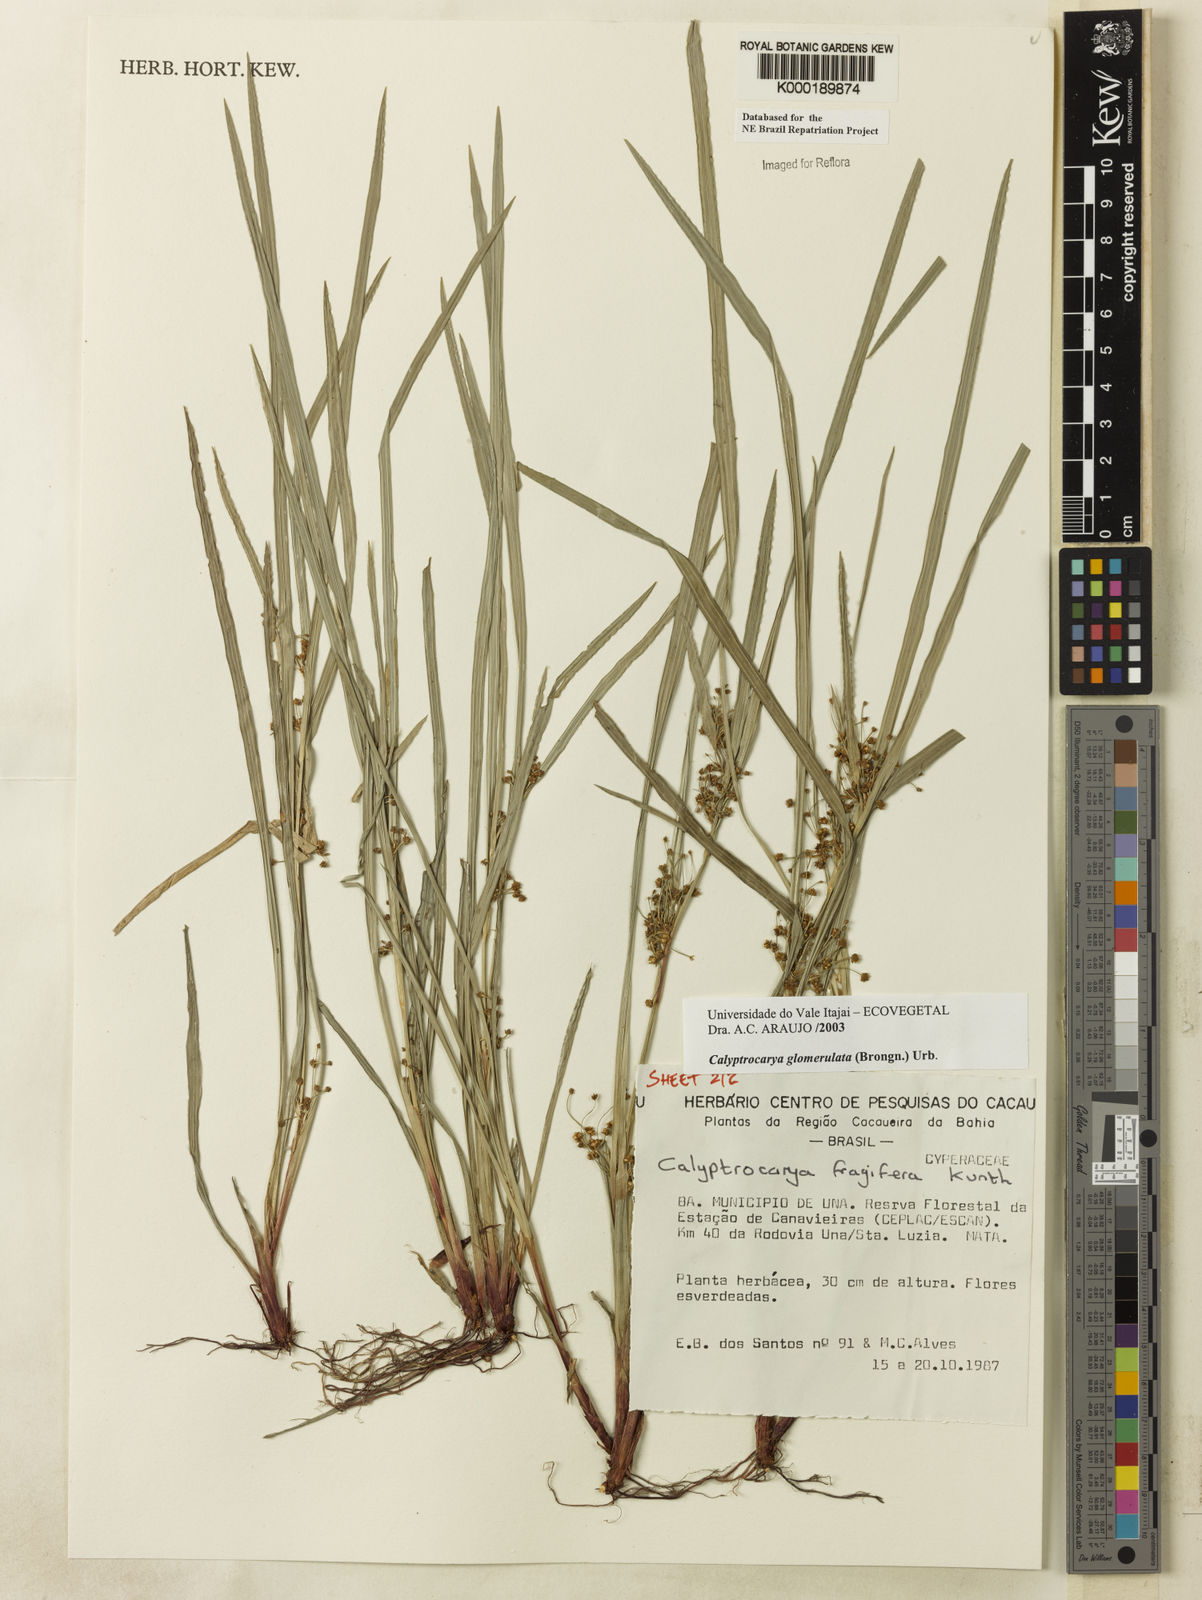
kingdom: Plantae
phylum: Tracheophyta
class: Liliopsida
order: Poales
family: Cyperaceae
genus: Calyptrocarya
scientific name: Calyptrocarya glomerulata
